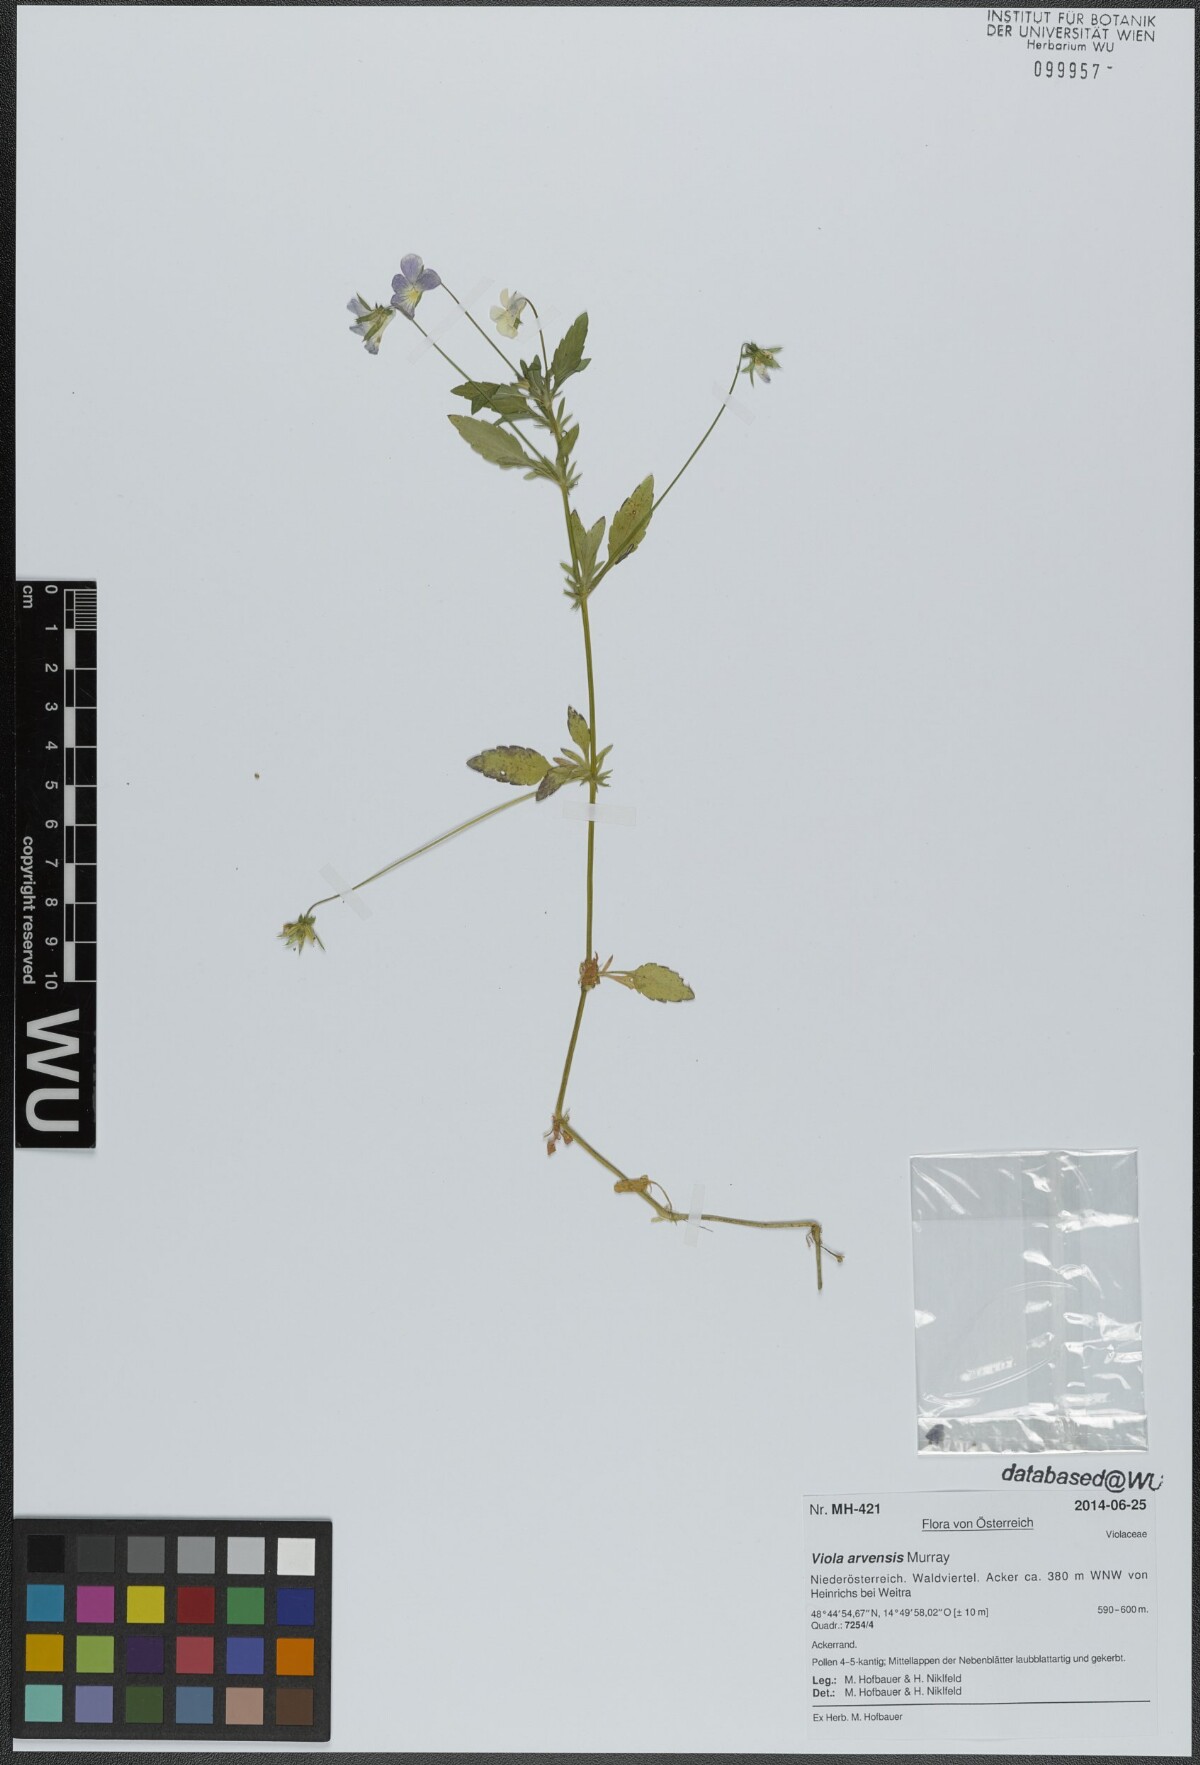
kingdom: Plantae
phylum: Tracheophyta
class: Magnoliopsida
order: Malpighiales
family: Violaceae
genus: Viola
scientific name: Viola arvensis
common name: Field pansy
